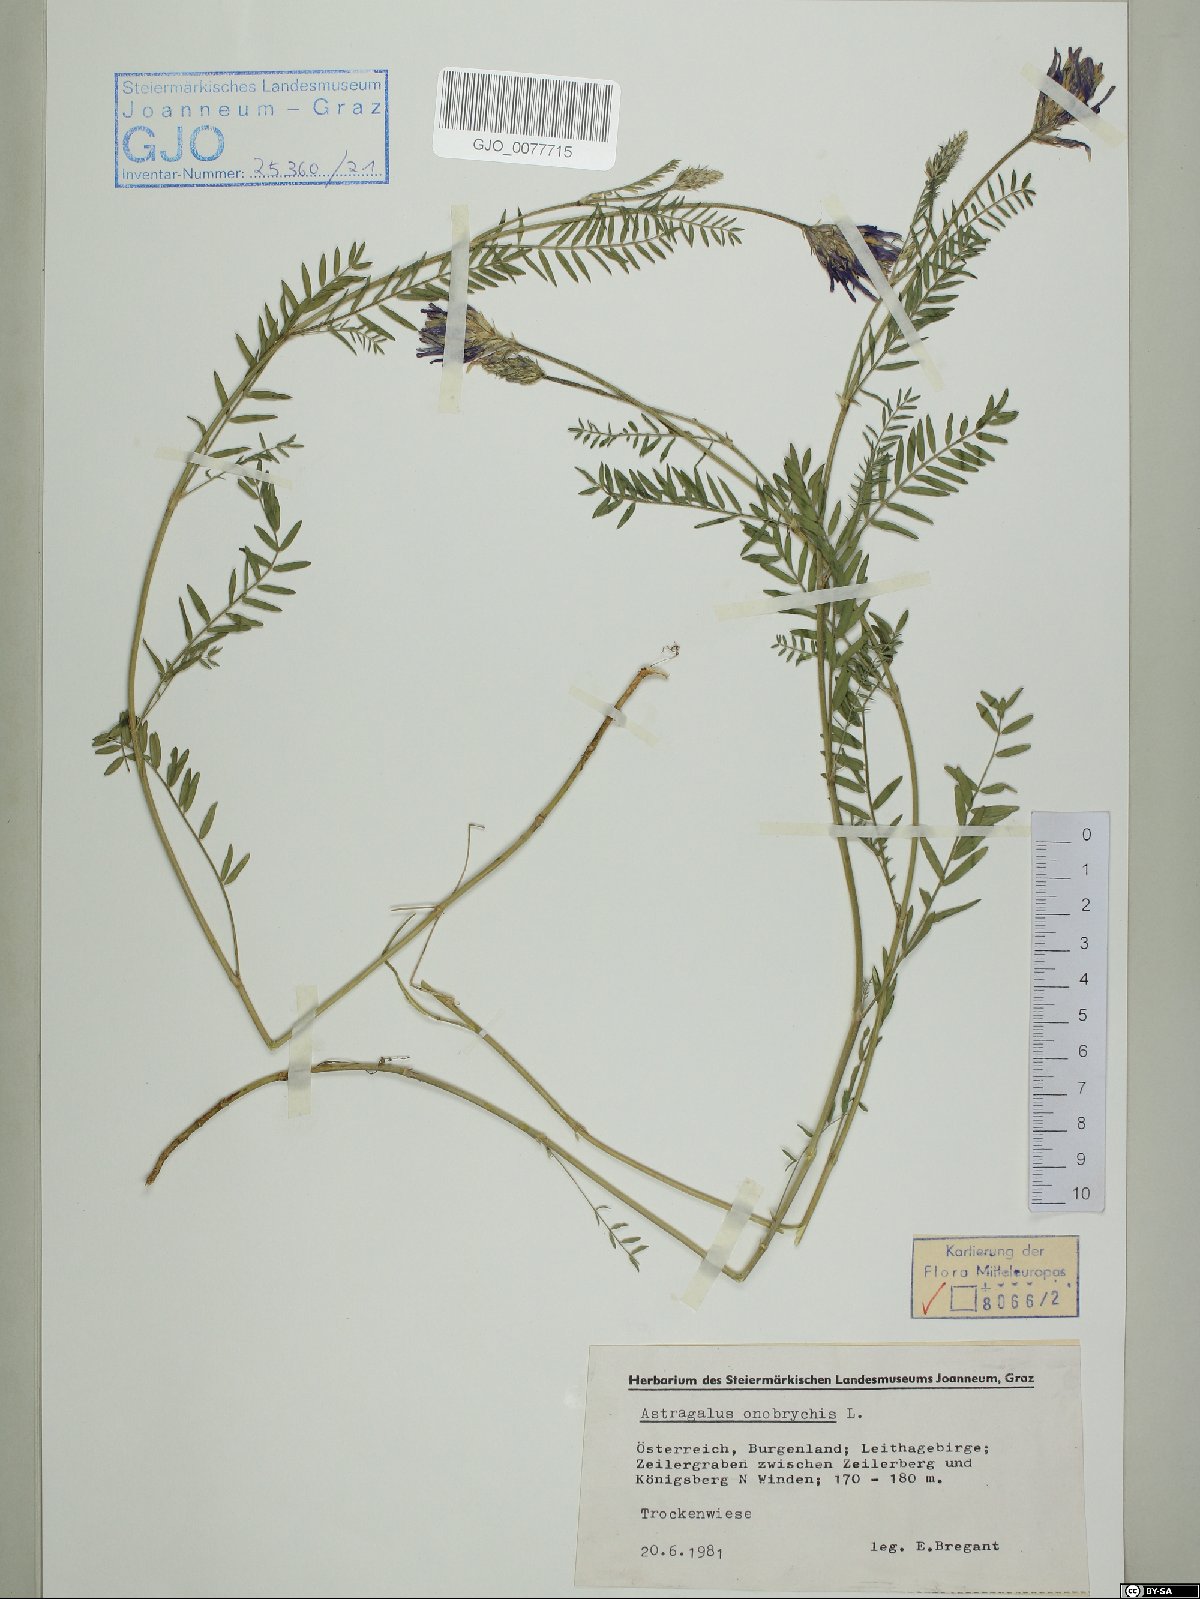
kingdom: Plantae
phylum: Tracheophyta
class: Magnoliopsida
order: Fabales
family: Fabaceae
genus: Astragalus
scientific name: Astragalus onobrychis
